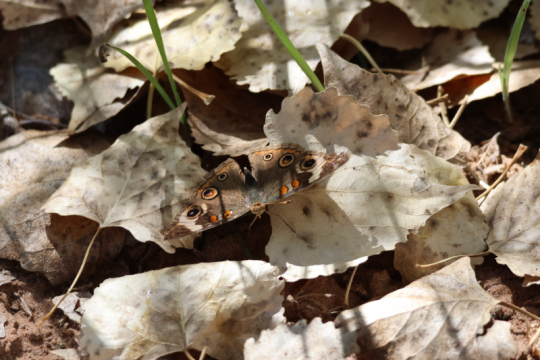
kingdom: Animalia
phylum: Arthropoda
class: Insecta
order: Lepidoptera
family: Nymphalidae
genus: Junonia
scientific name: Junonia coenia
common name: Common Buckeye
